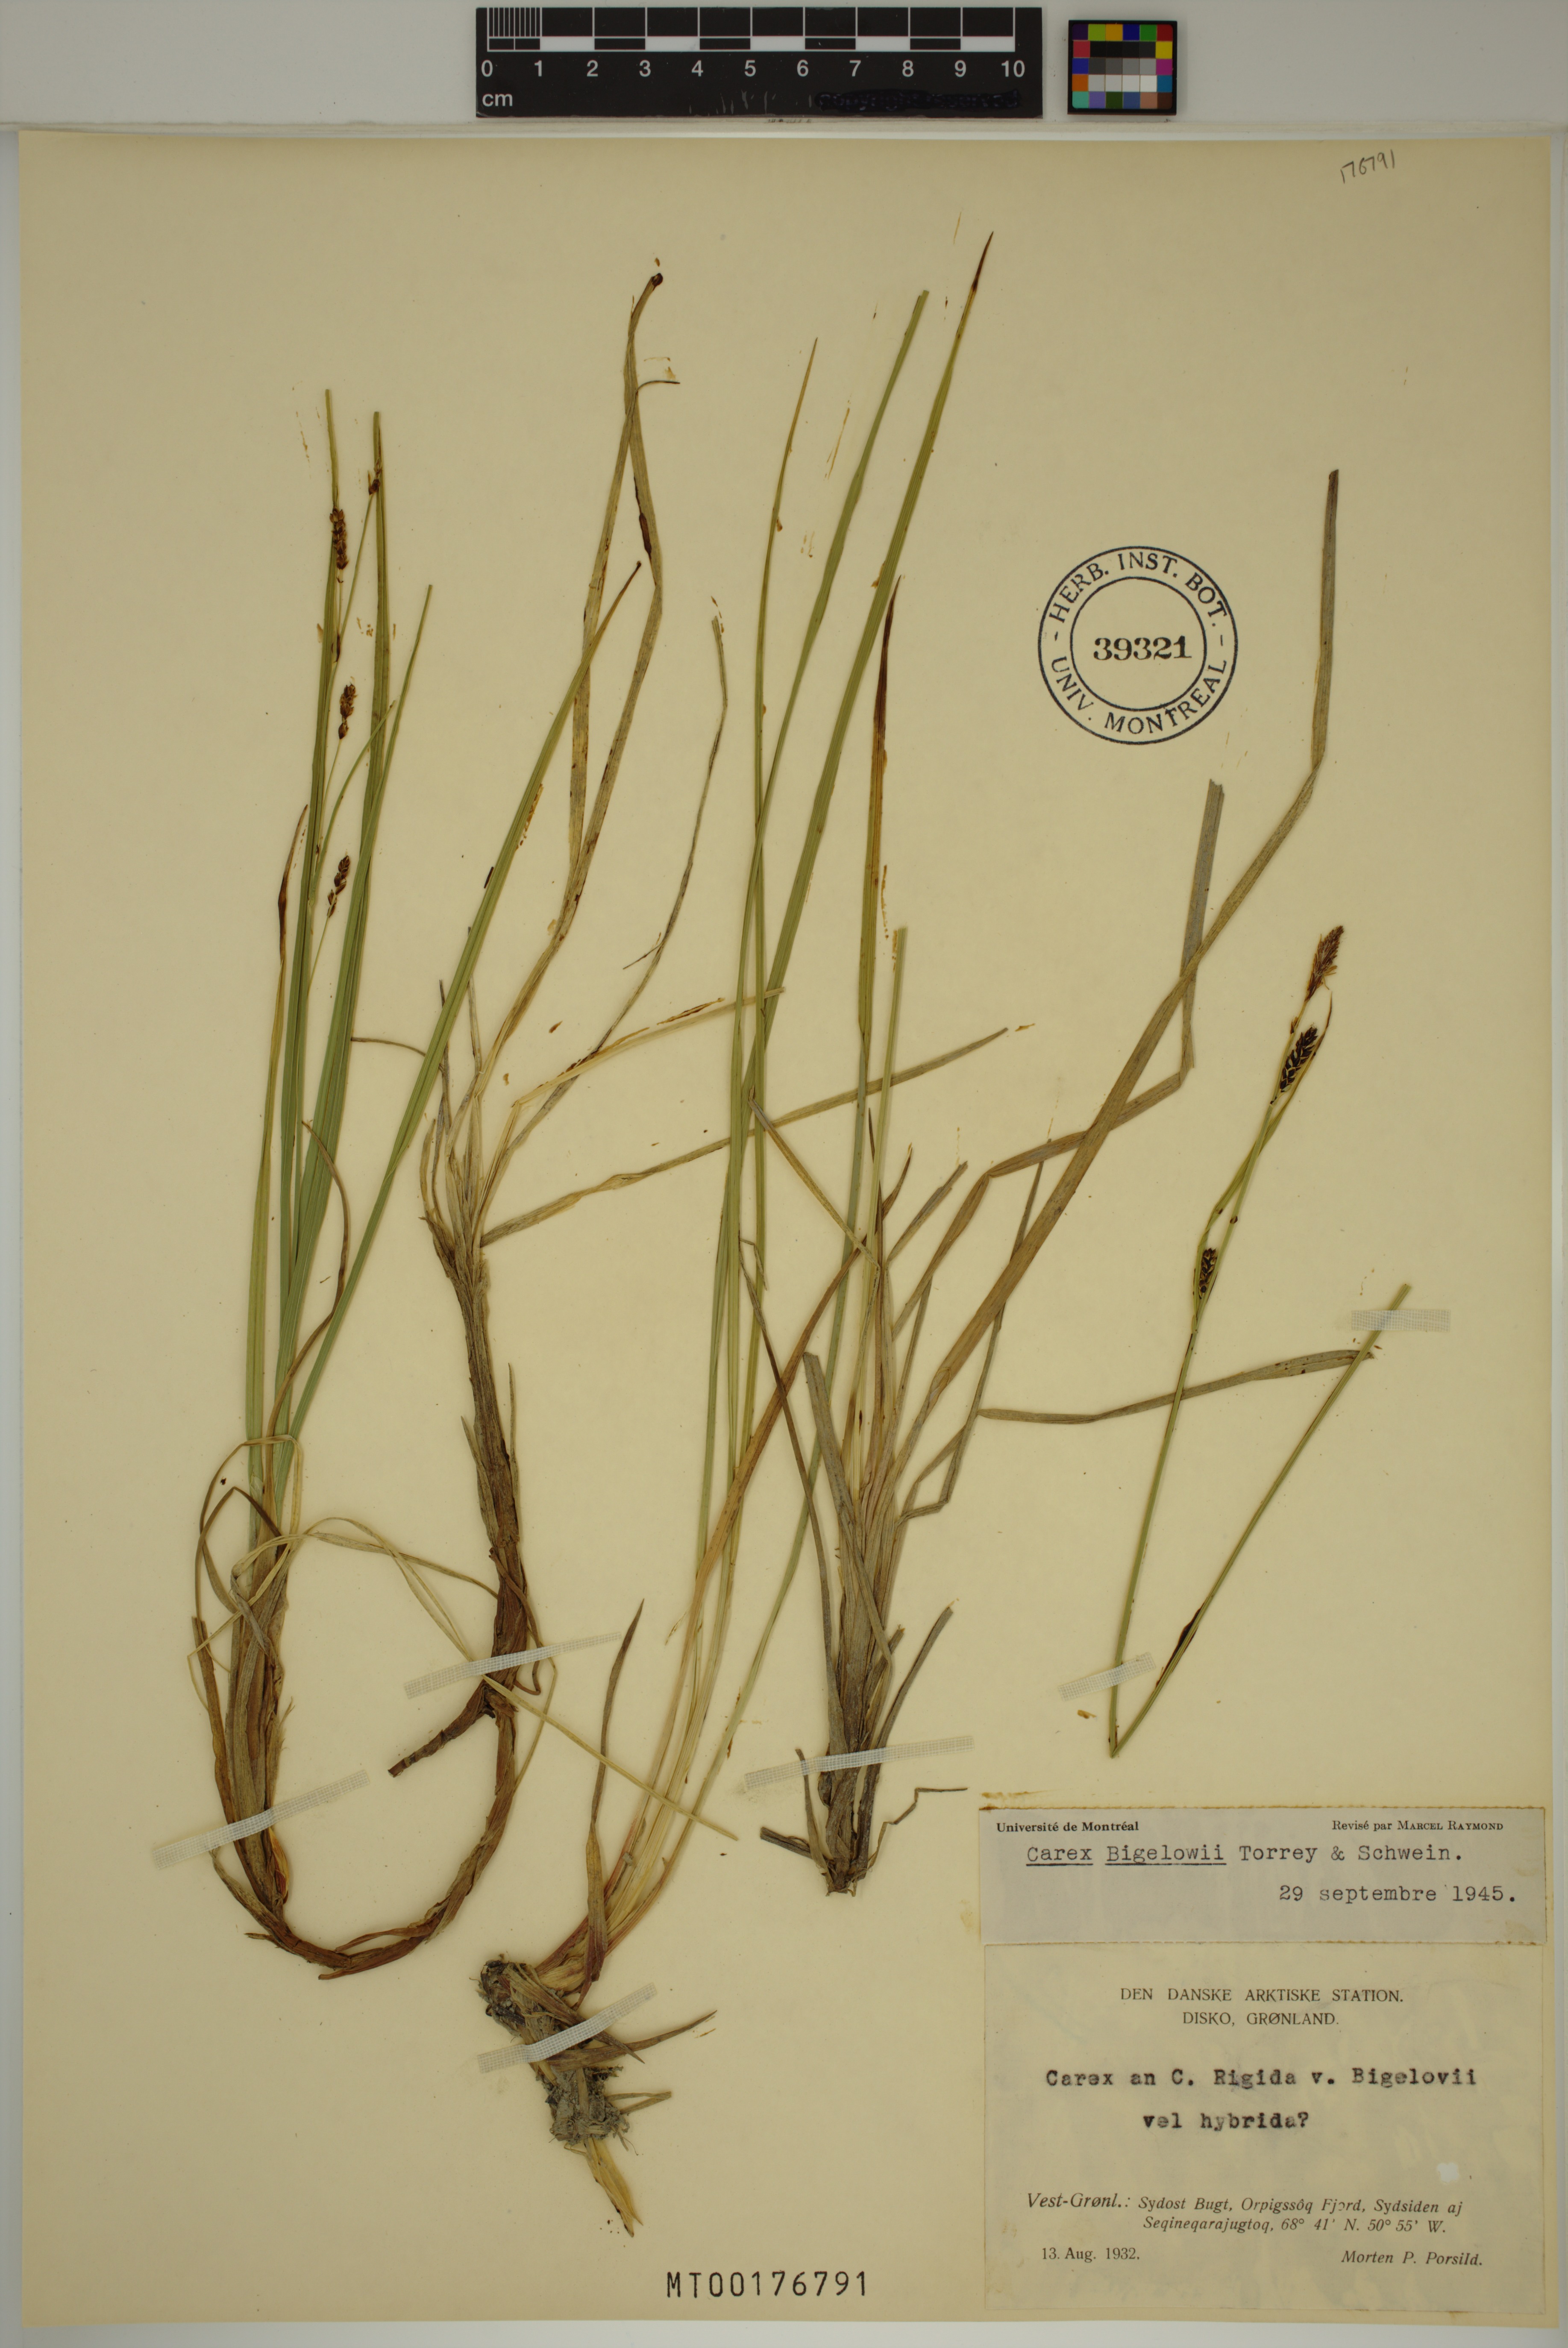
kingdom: Plantae
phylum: Tracheophyta
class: Liliopsida
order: Poales
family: Cyperaceae
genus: Carex
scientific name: Carex bigelowii
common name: Stiff sedge
